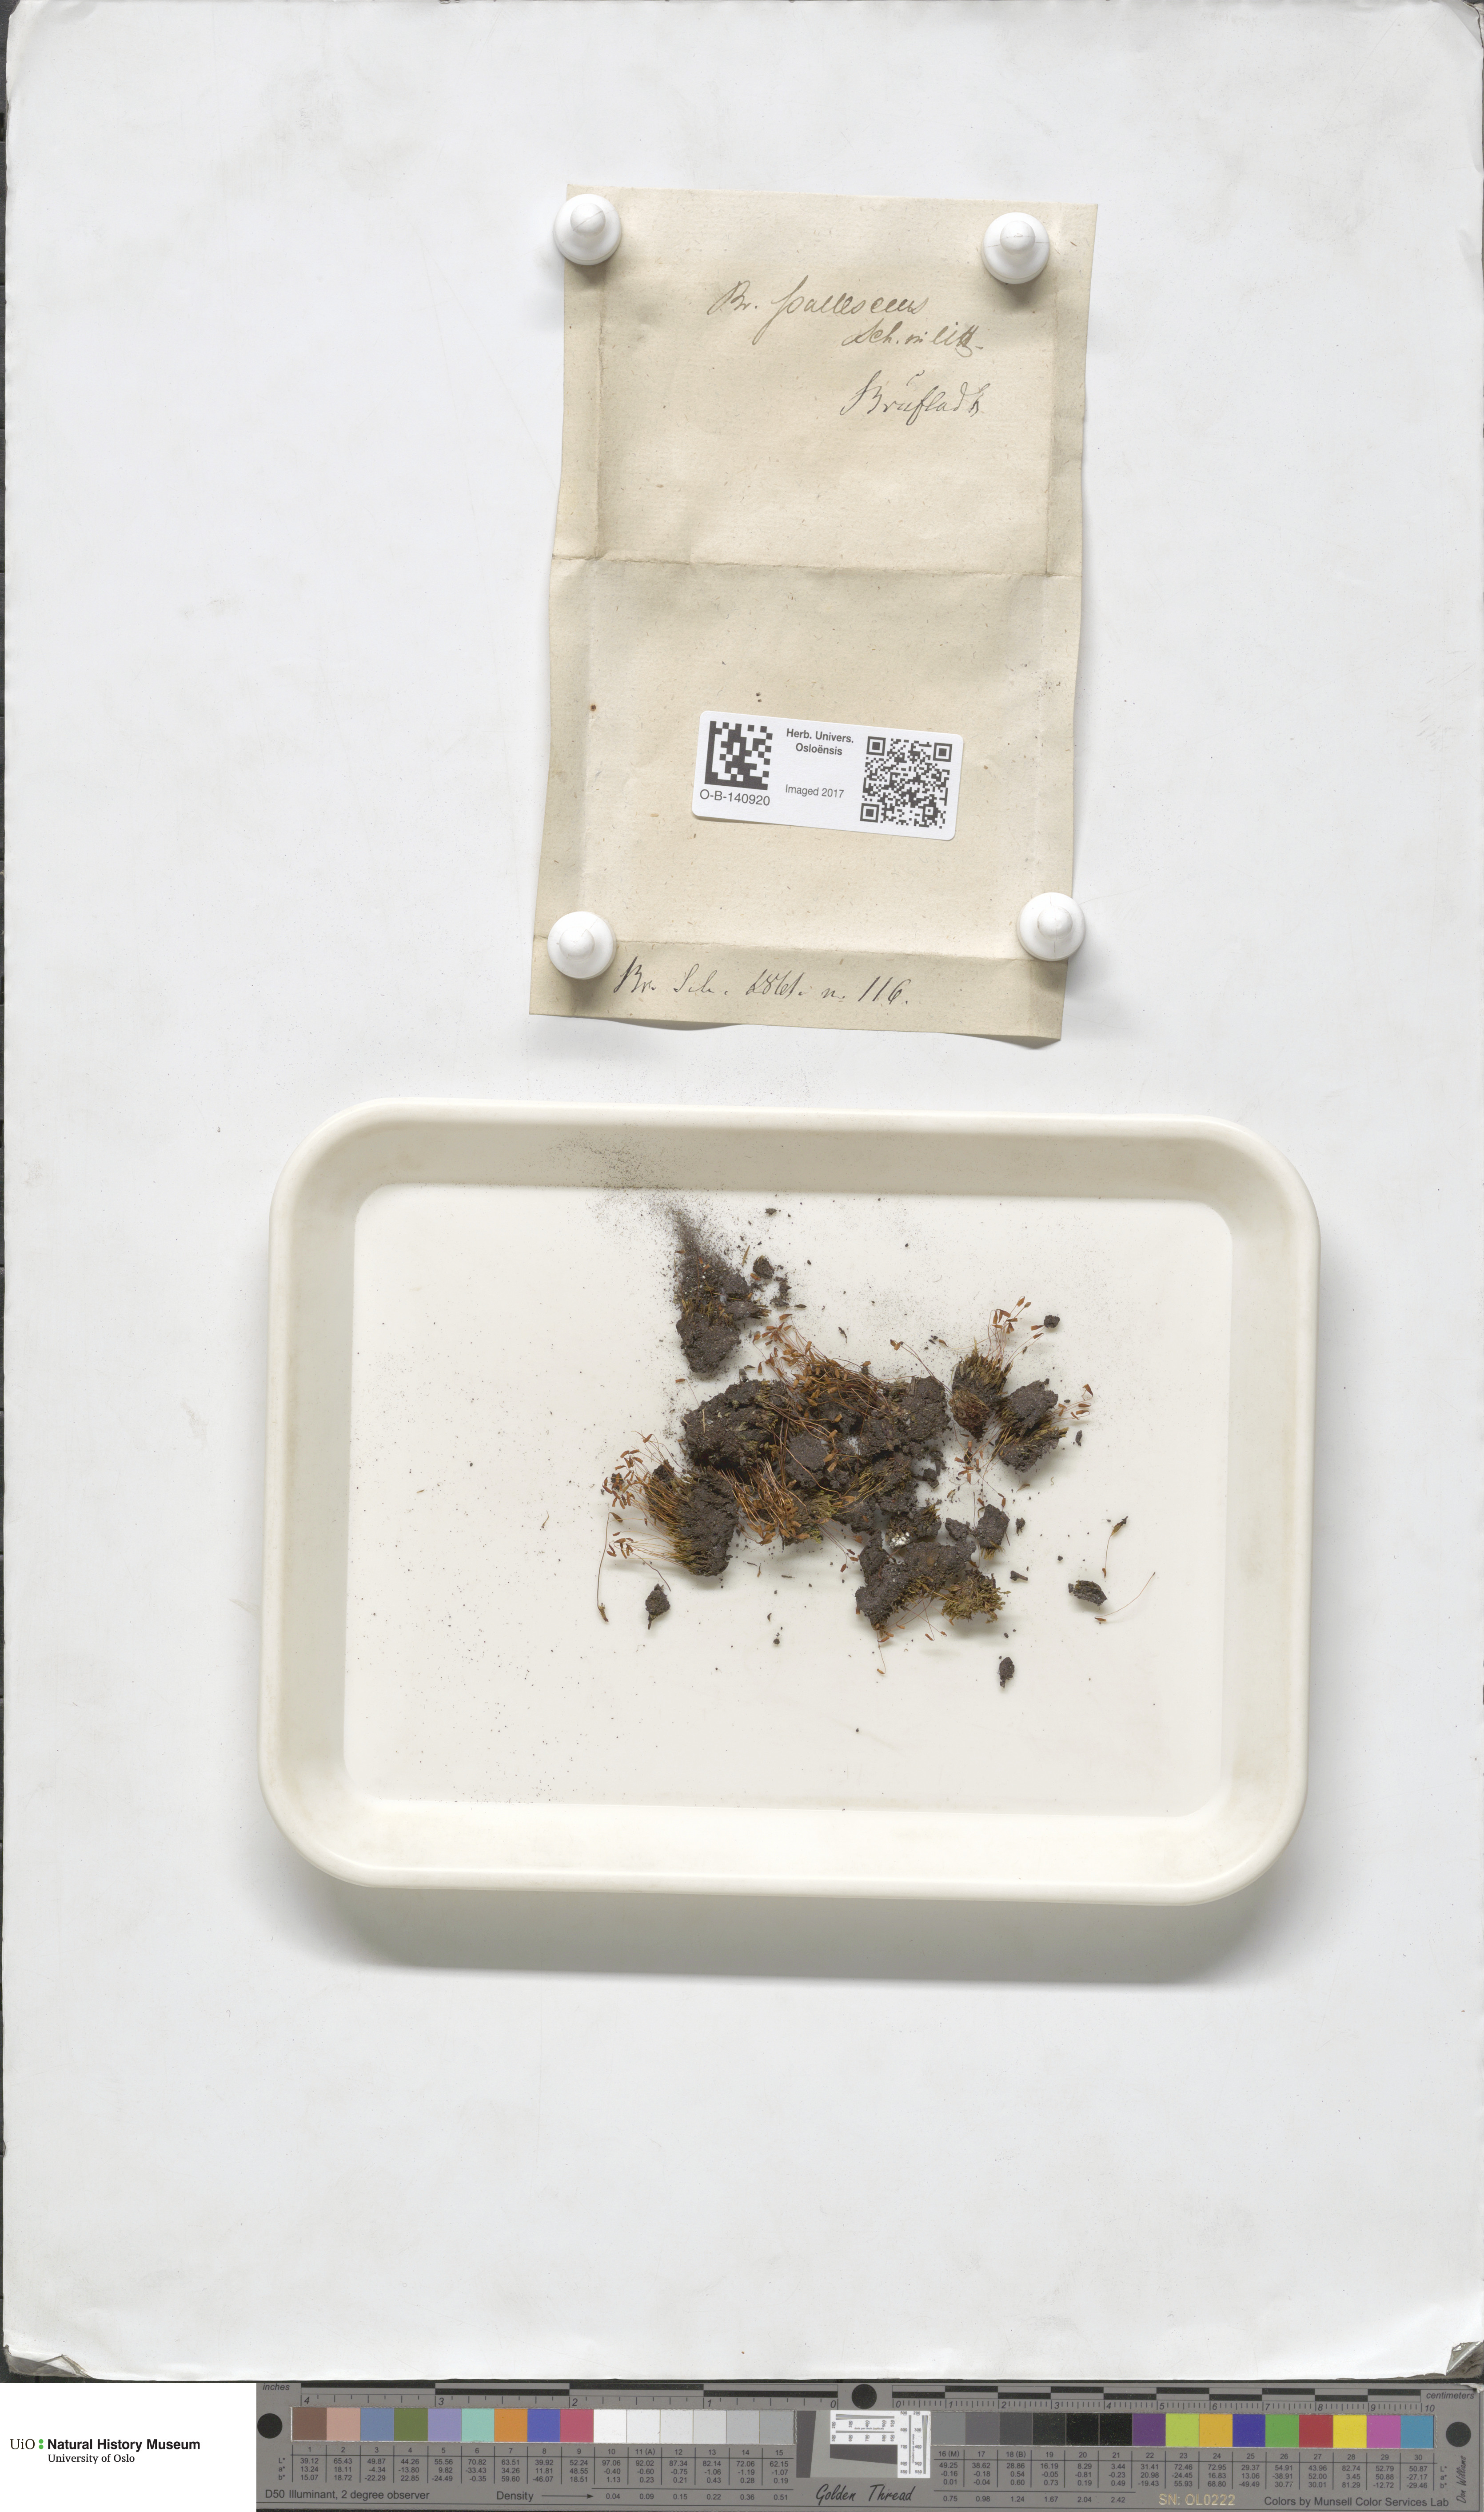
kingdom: Plantae
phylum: Bryophyta
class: Bryopsida
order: Bryales
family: Bryaceae
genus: Ptychostomum
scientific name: Ptychostomum pallescens
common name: Tall-clustered thread-moss
